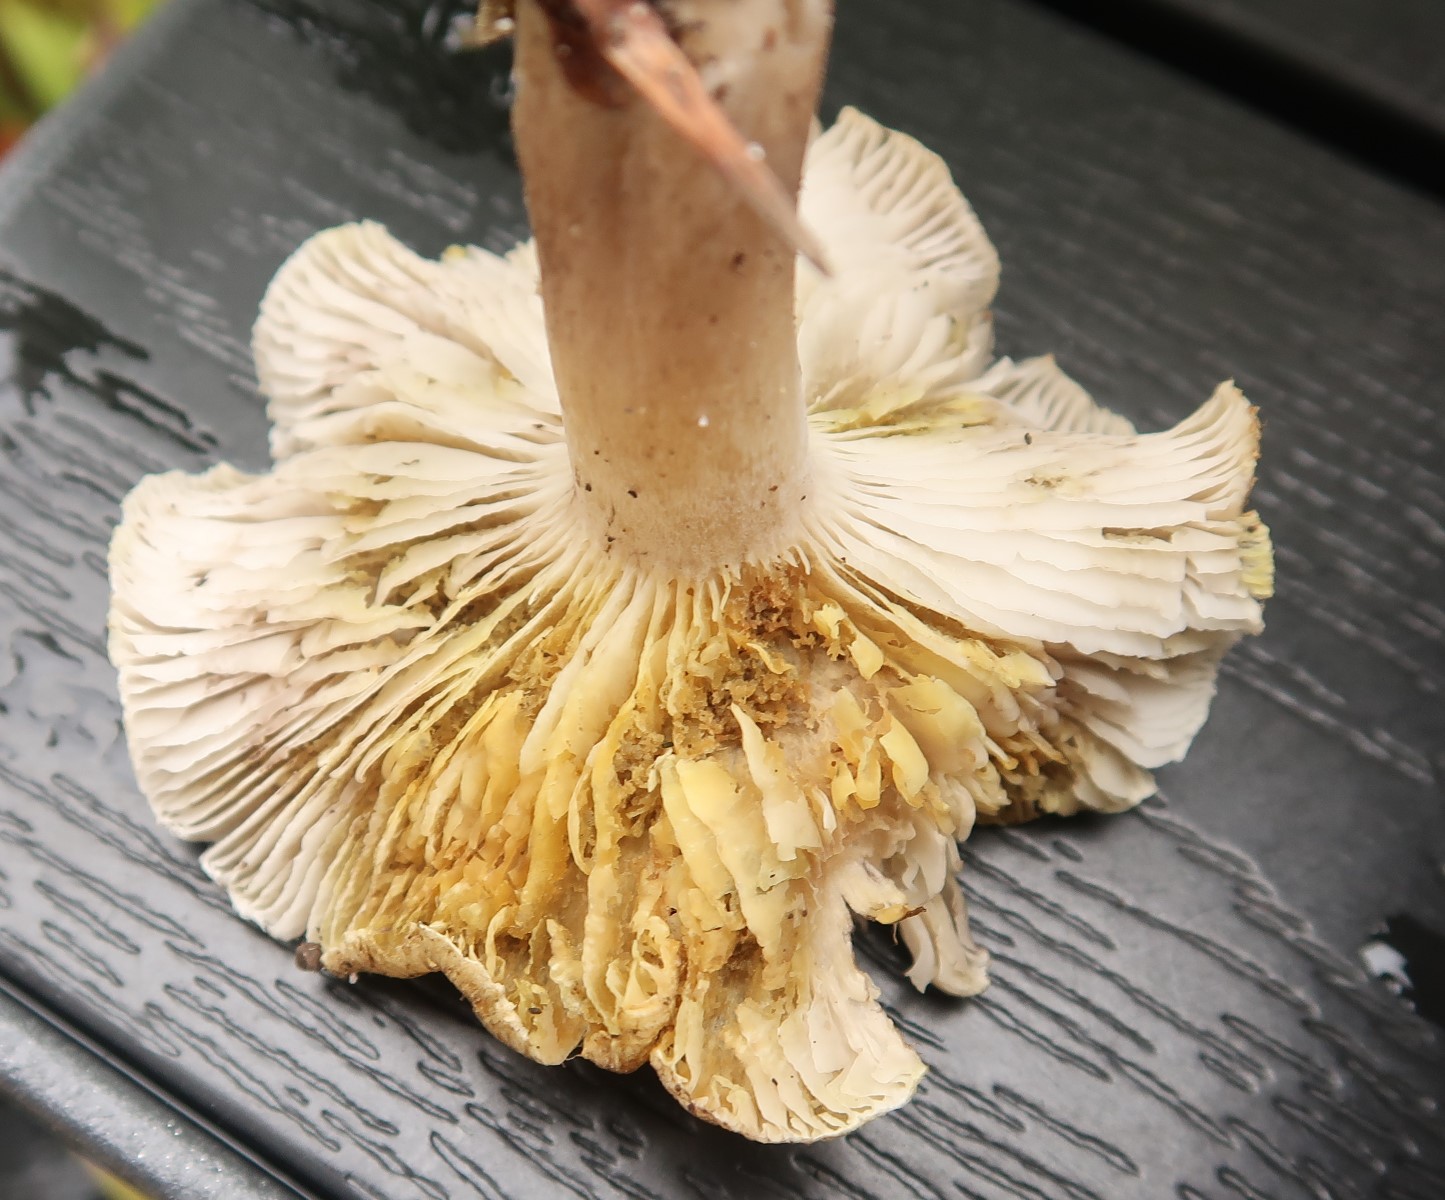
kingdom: Fungi
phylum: Basidiomycota
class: Agaricomycetes
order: Agaricales
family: Tricholomataceae
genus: Tricholoma
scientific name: Tricholoma scalpturatum
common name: gulplettet ridderhat
